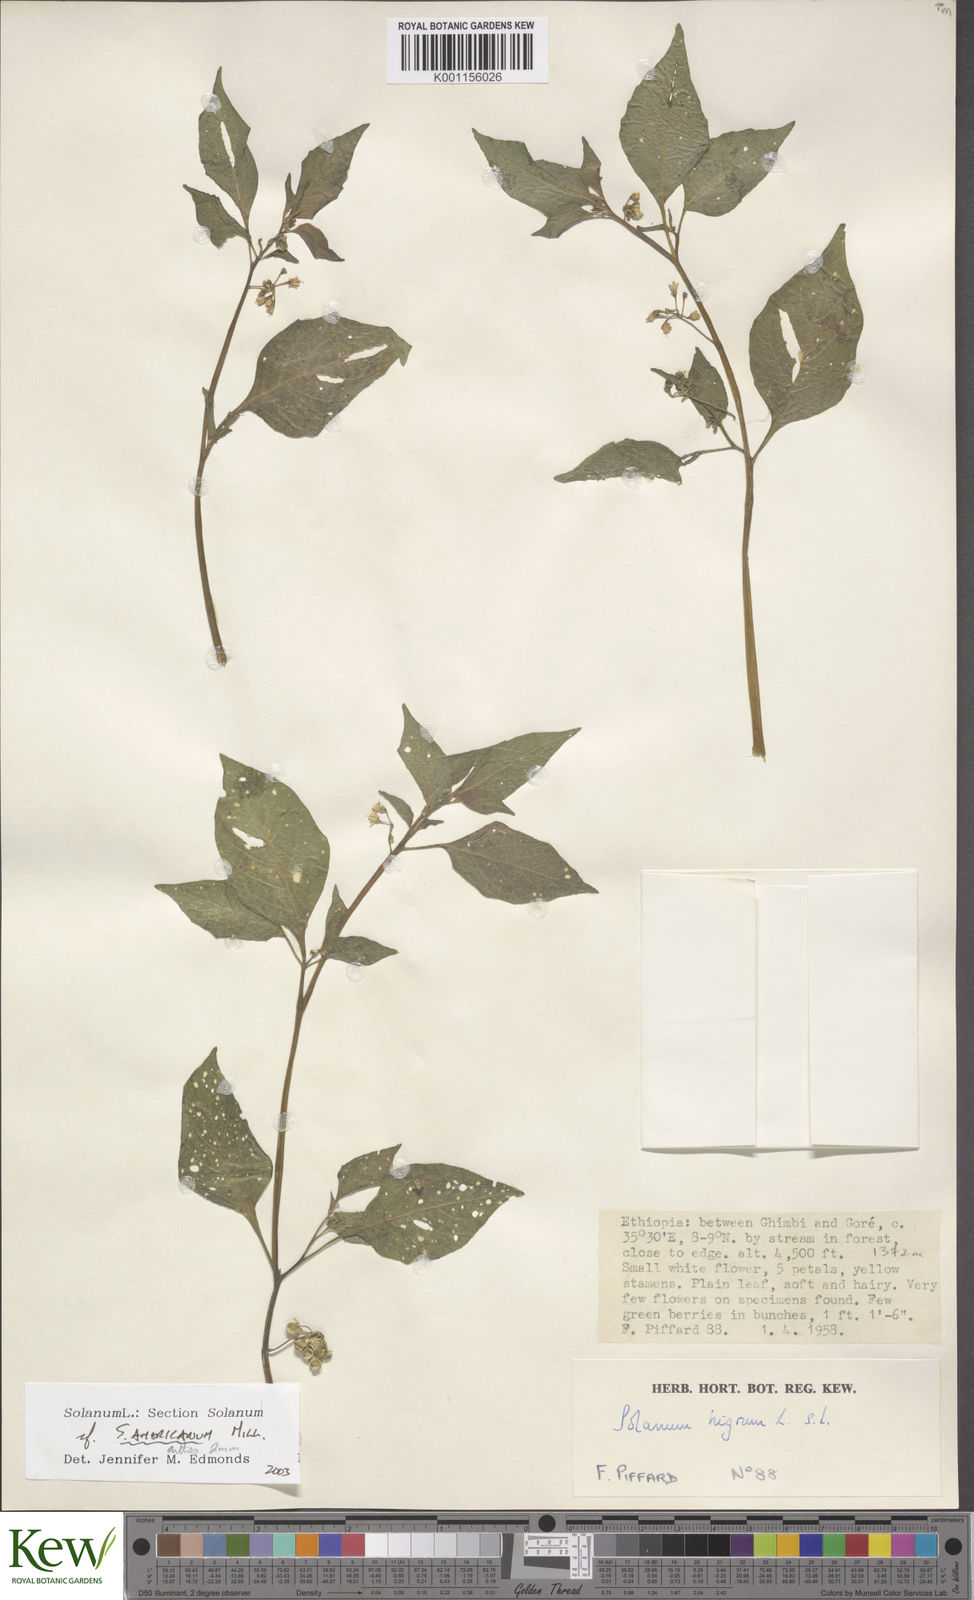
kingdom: Plantae
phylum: Tracheophyta
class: Magnoliopsida
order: Solanales
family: Solanaceae
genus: Solanum
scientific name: Solanum tarderemotum
